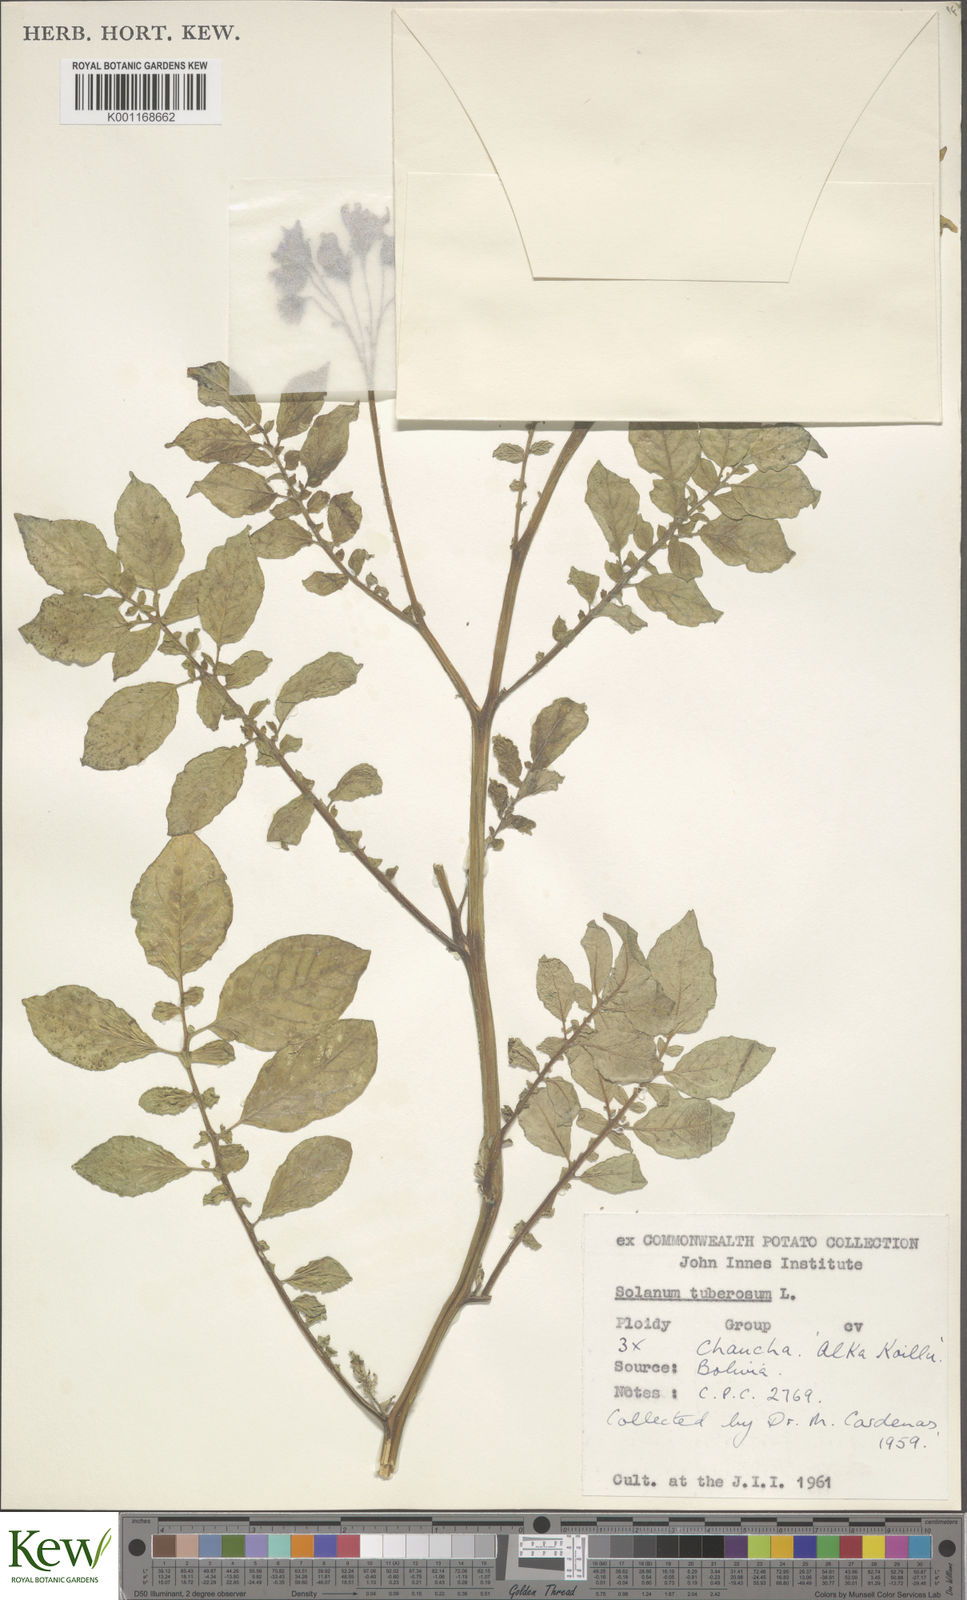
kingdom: Plantae
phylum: Tracheophyta
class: Magnoliopsida
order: Solanales
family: Solanaceae
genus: Solanum
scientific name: Solanum chaucha
